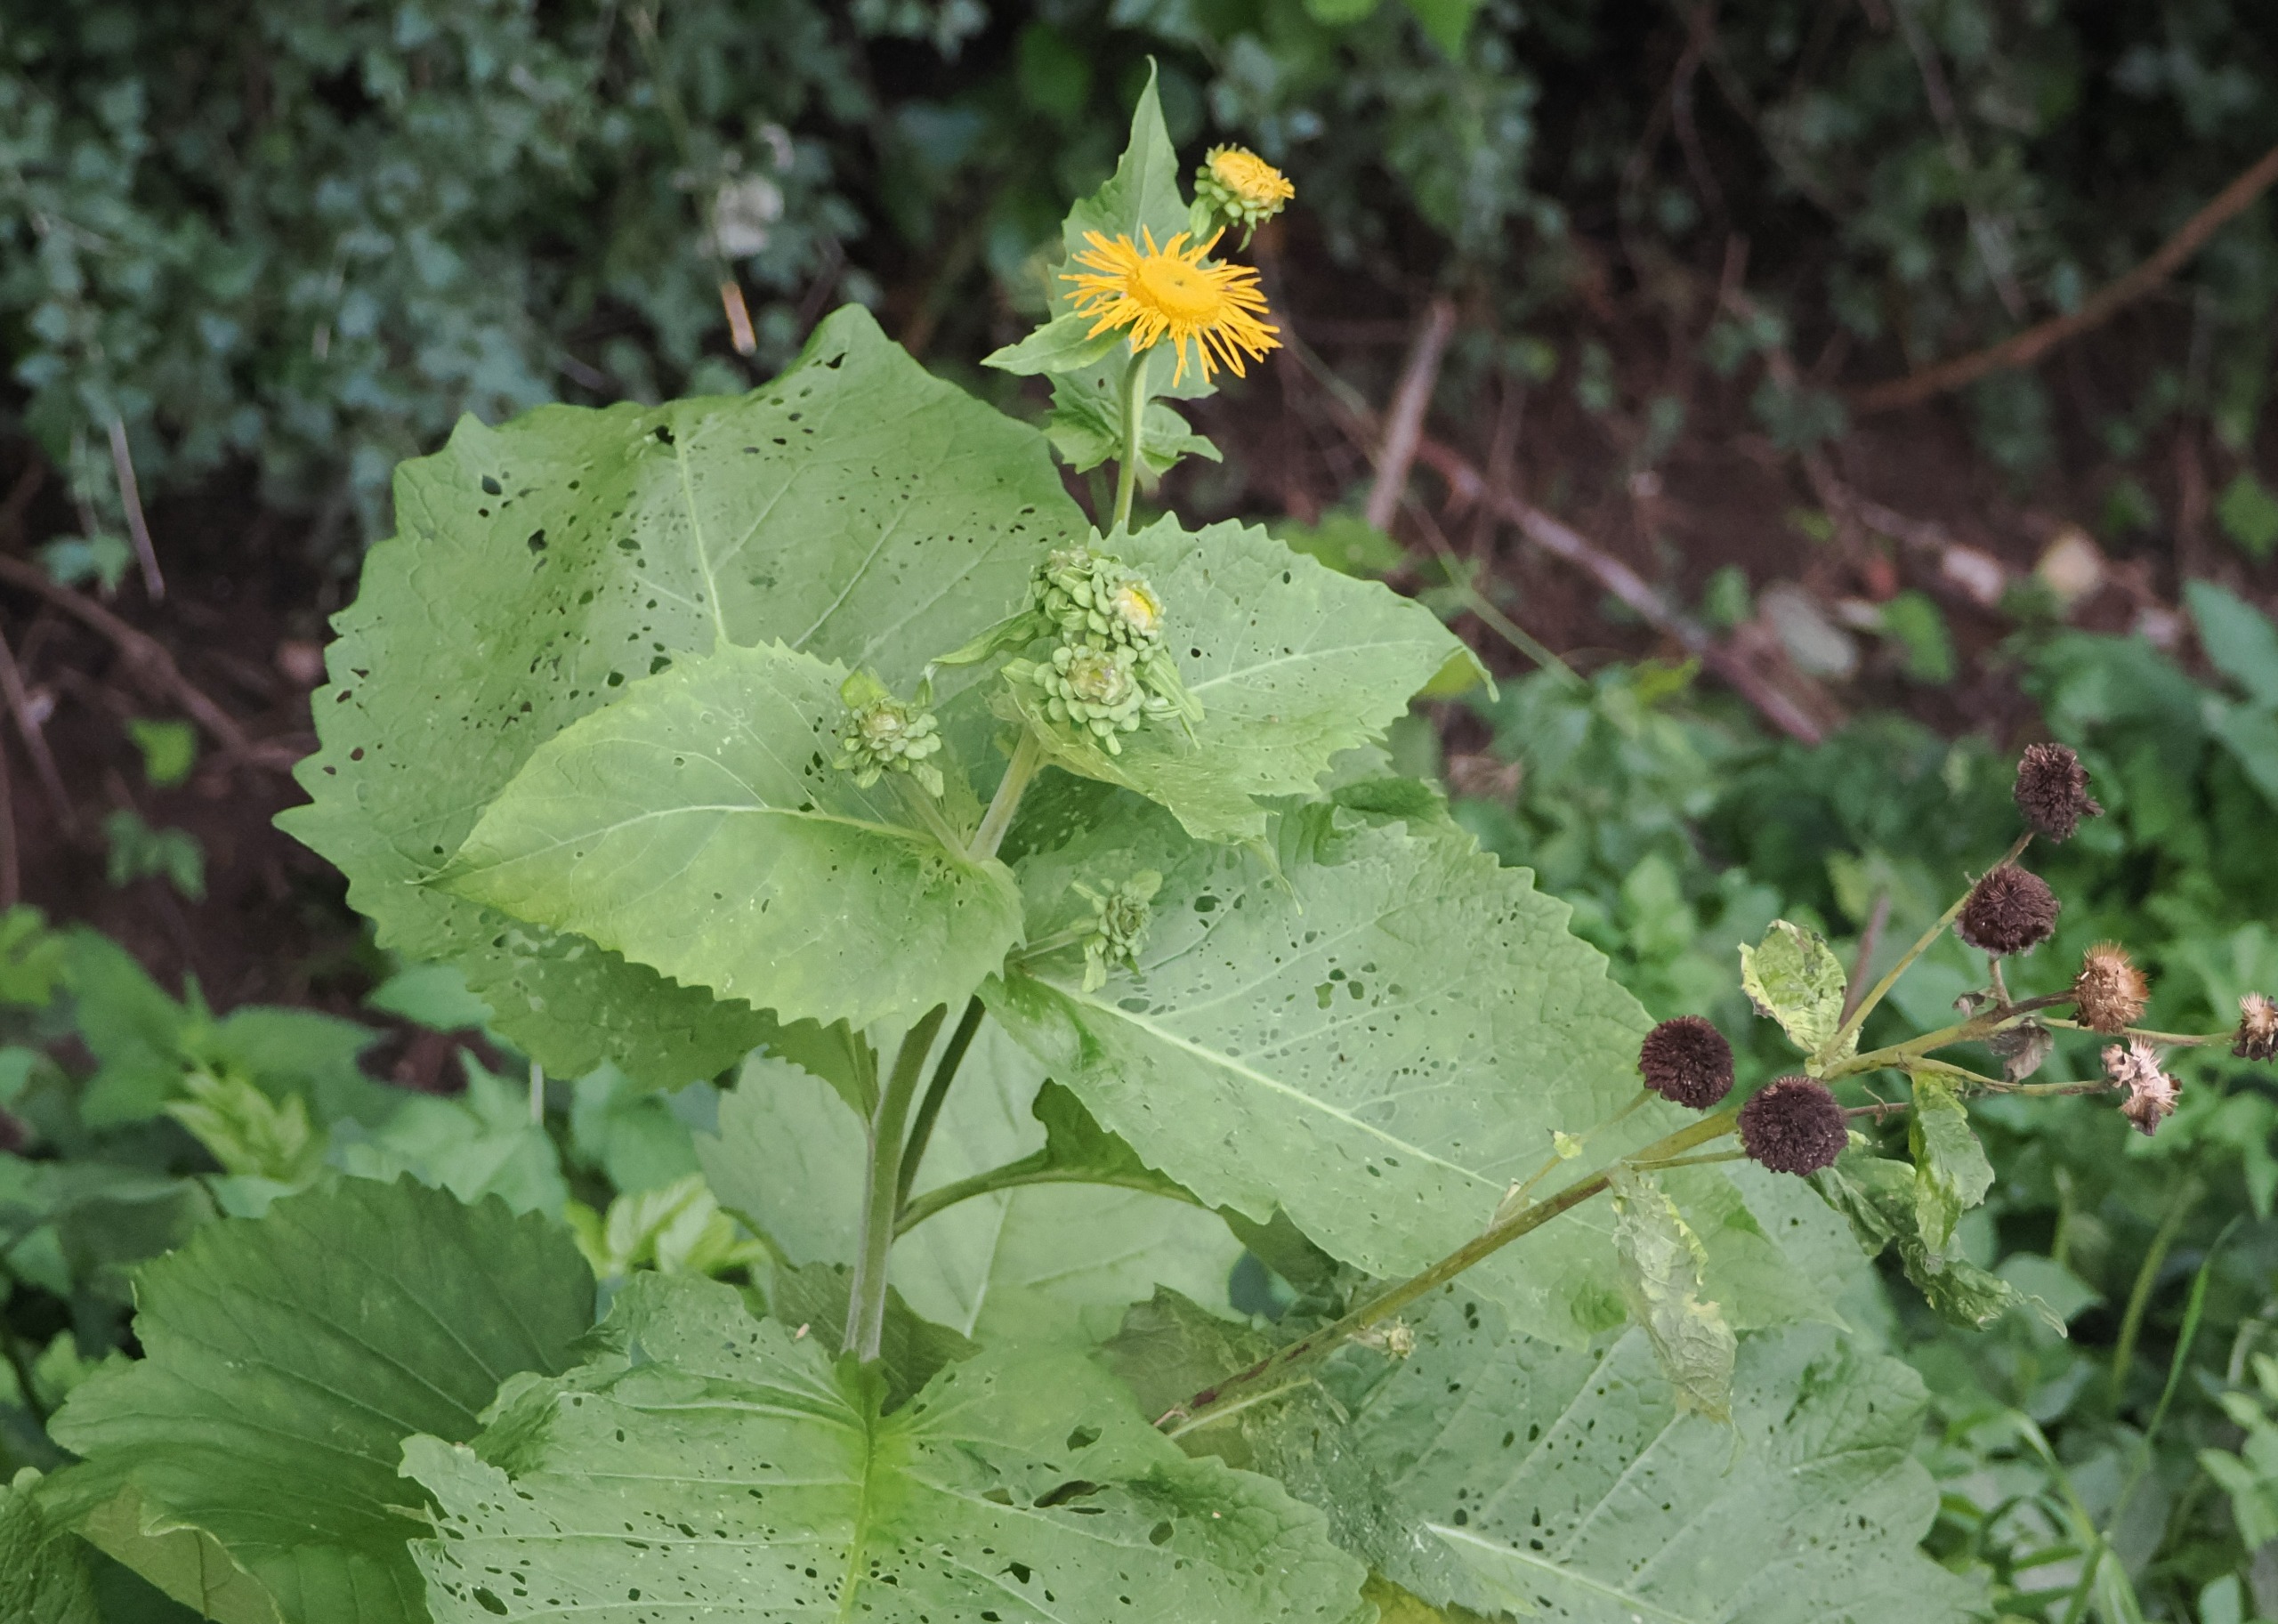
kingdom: Plantae
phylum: Tracheophyta
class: Magnoliopsida
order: Asterales
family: Asteraceae
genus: Telekia
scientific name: Telekia speciosa
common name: Tusindstråle
